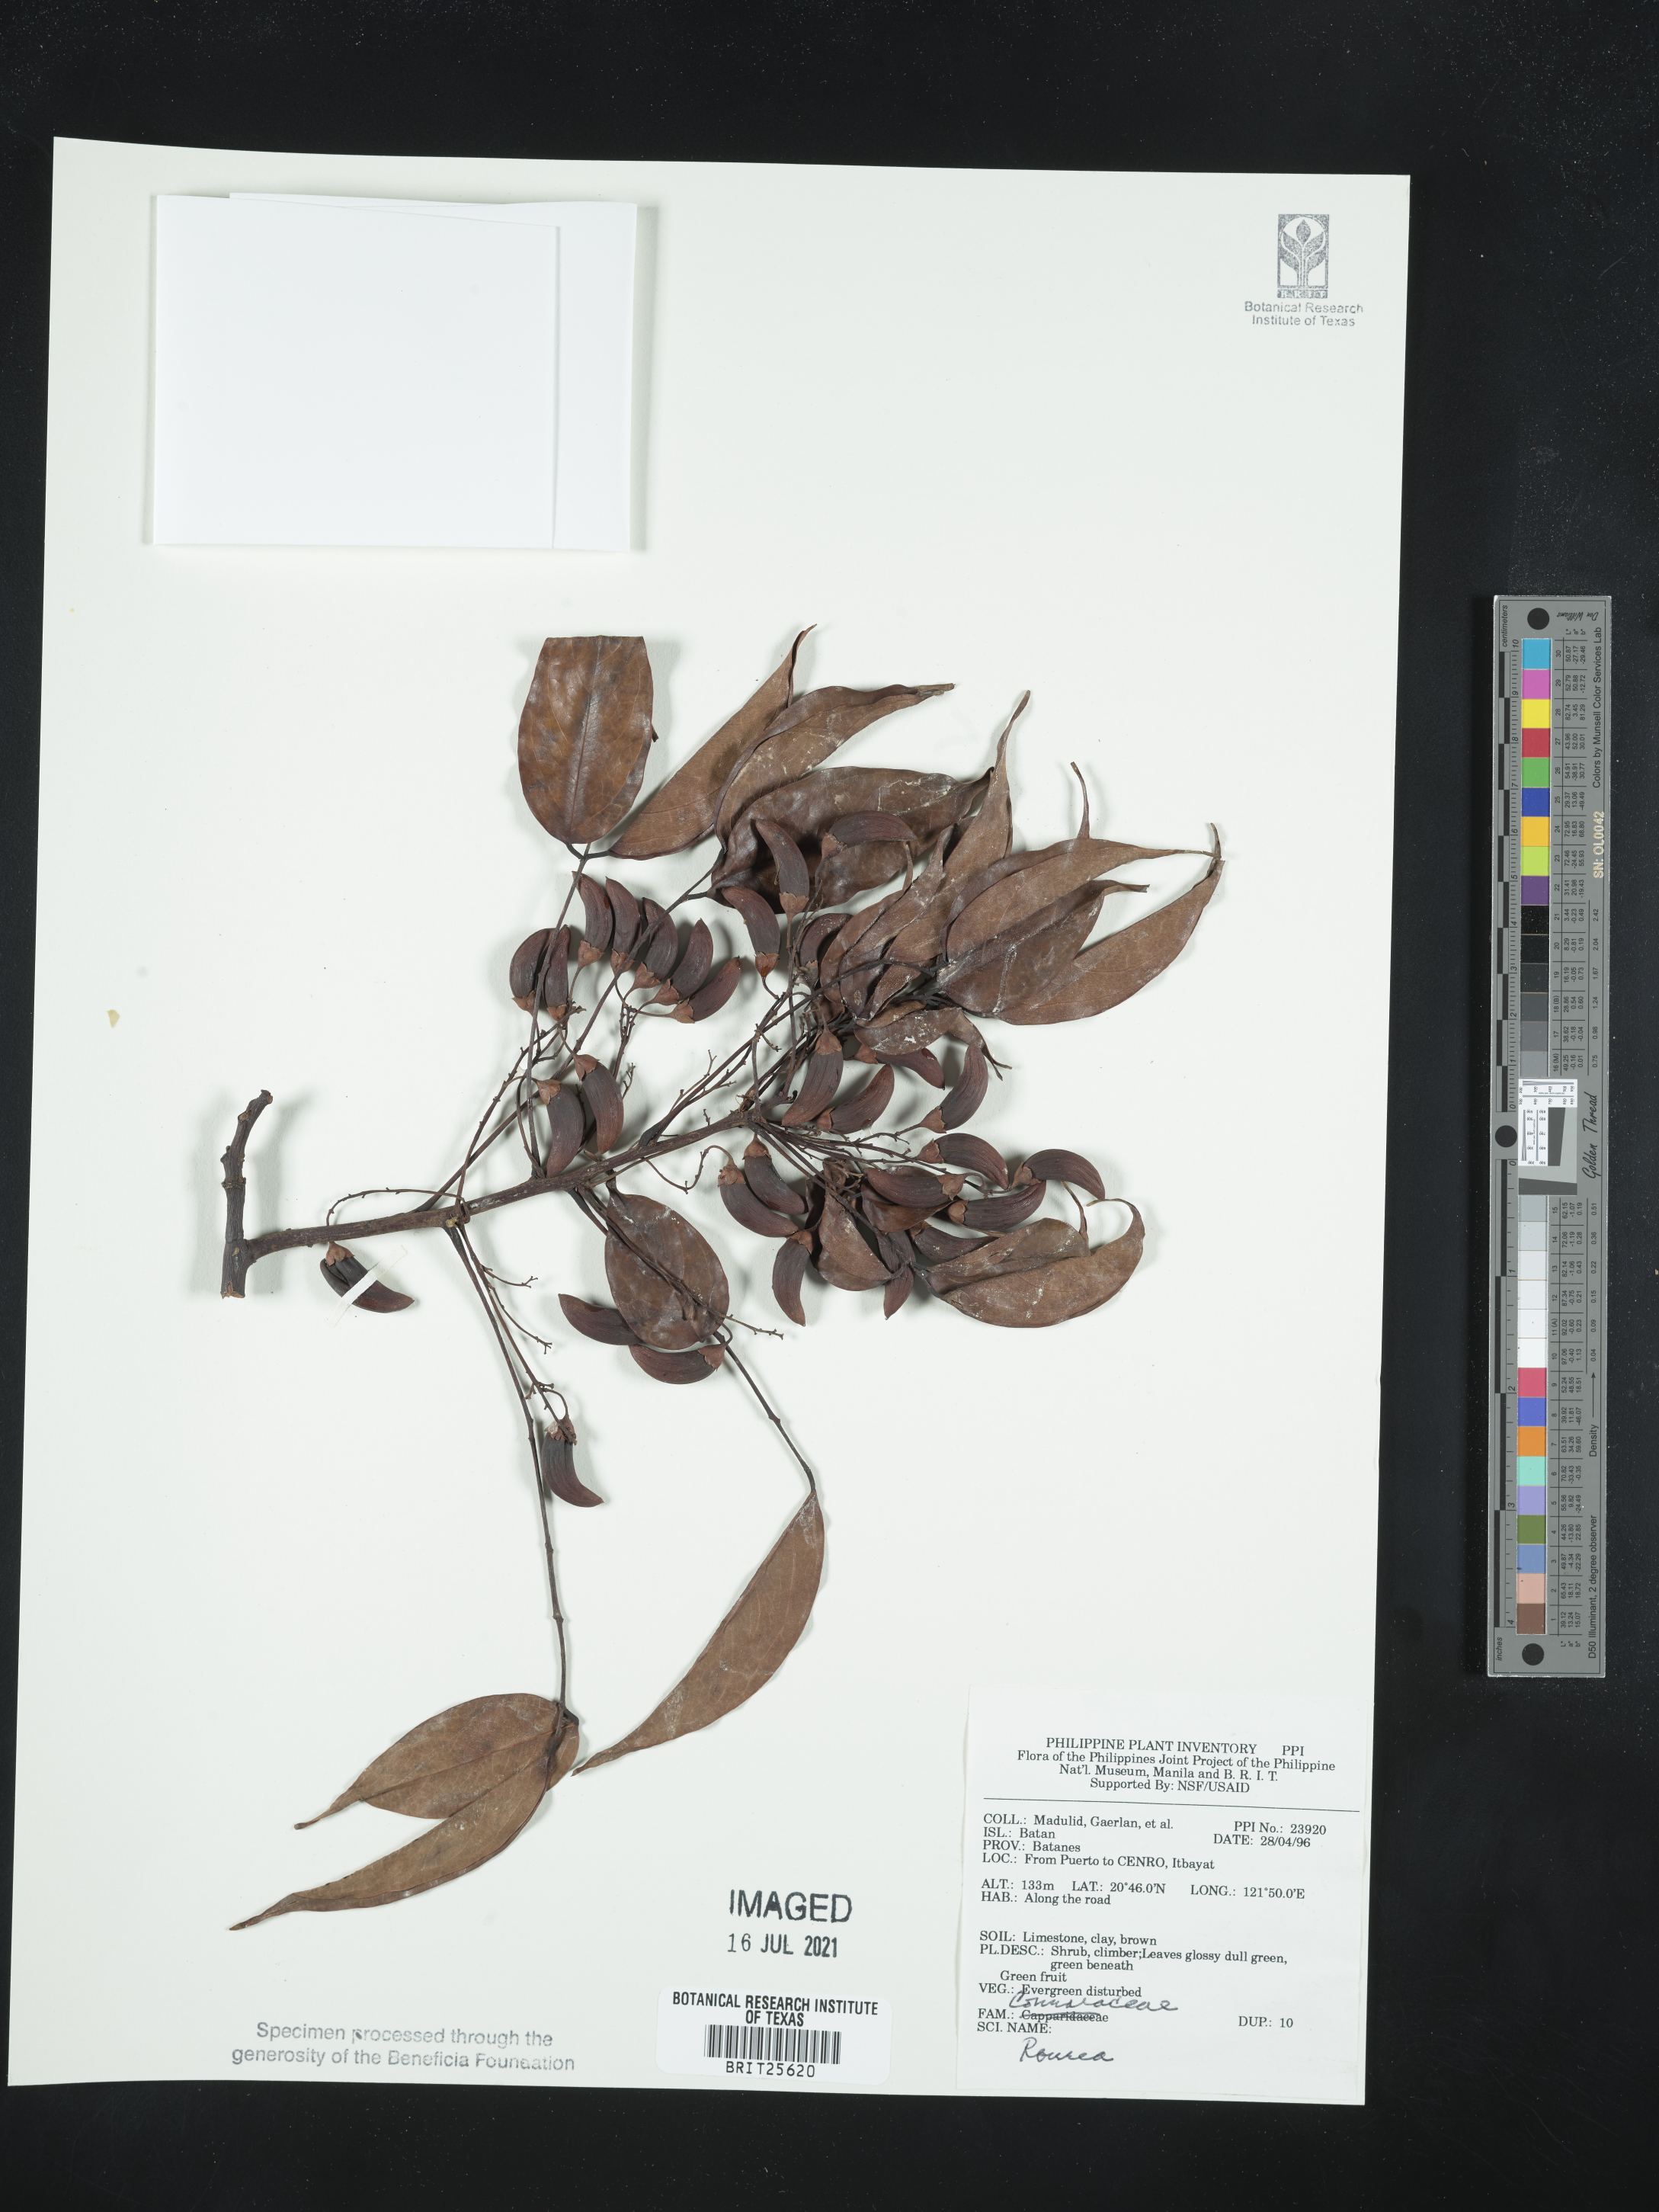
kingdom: Plantae
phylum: Tracheophyta
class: Magnoliopsida
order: Oxalidales
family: Connaraceae
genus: Rourea
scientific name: Rourea
